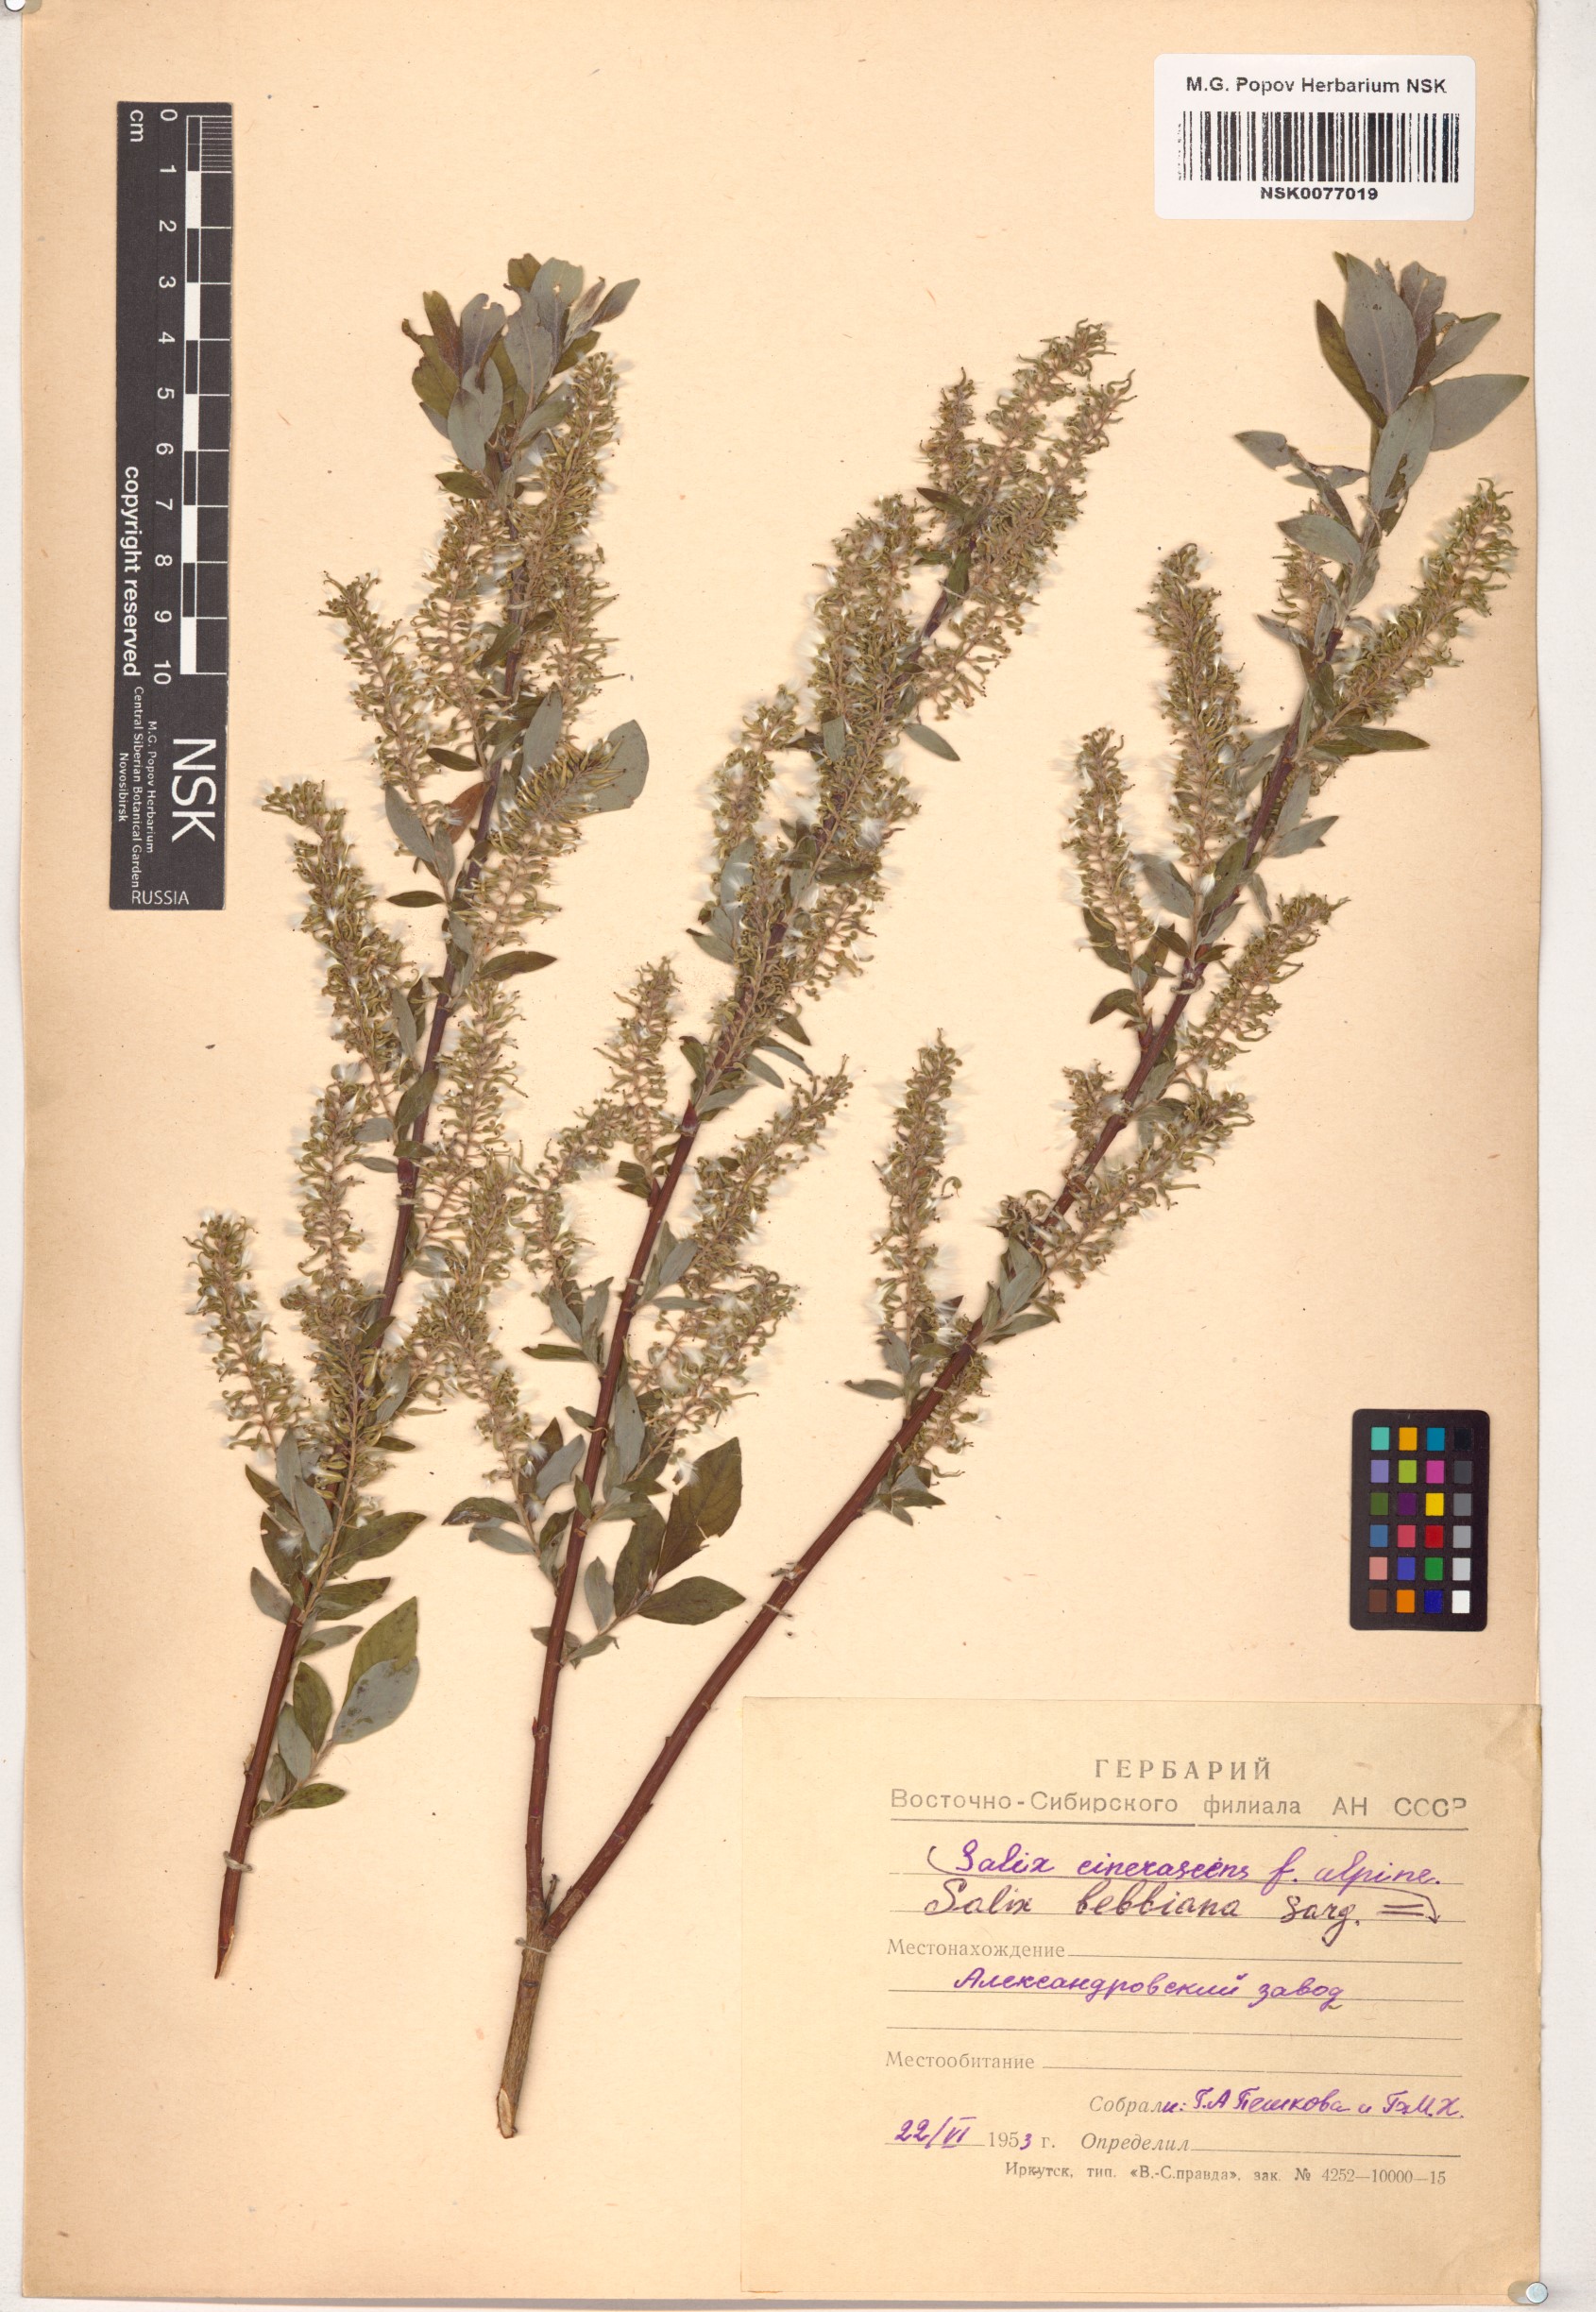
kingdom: Plantae
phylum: Tracheophyta
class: Magnoliopsida
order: Malpighiales
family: Salicaceae
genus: Salix
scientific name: Salix bebbiana
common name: Bebb's willow
